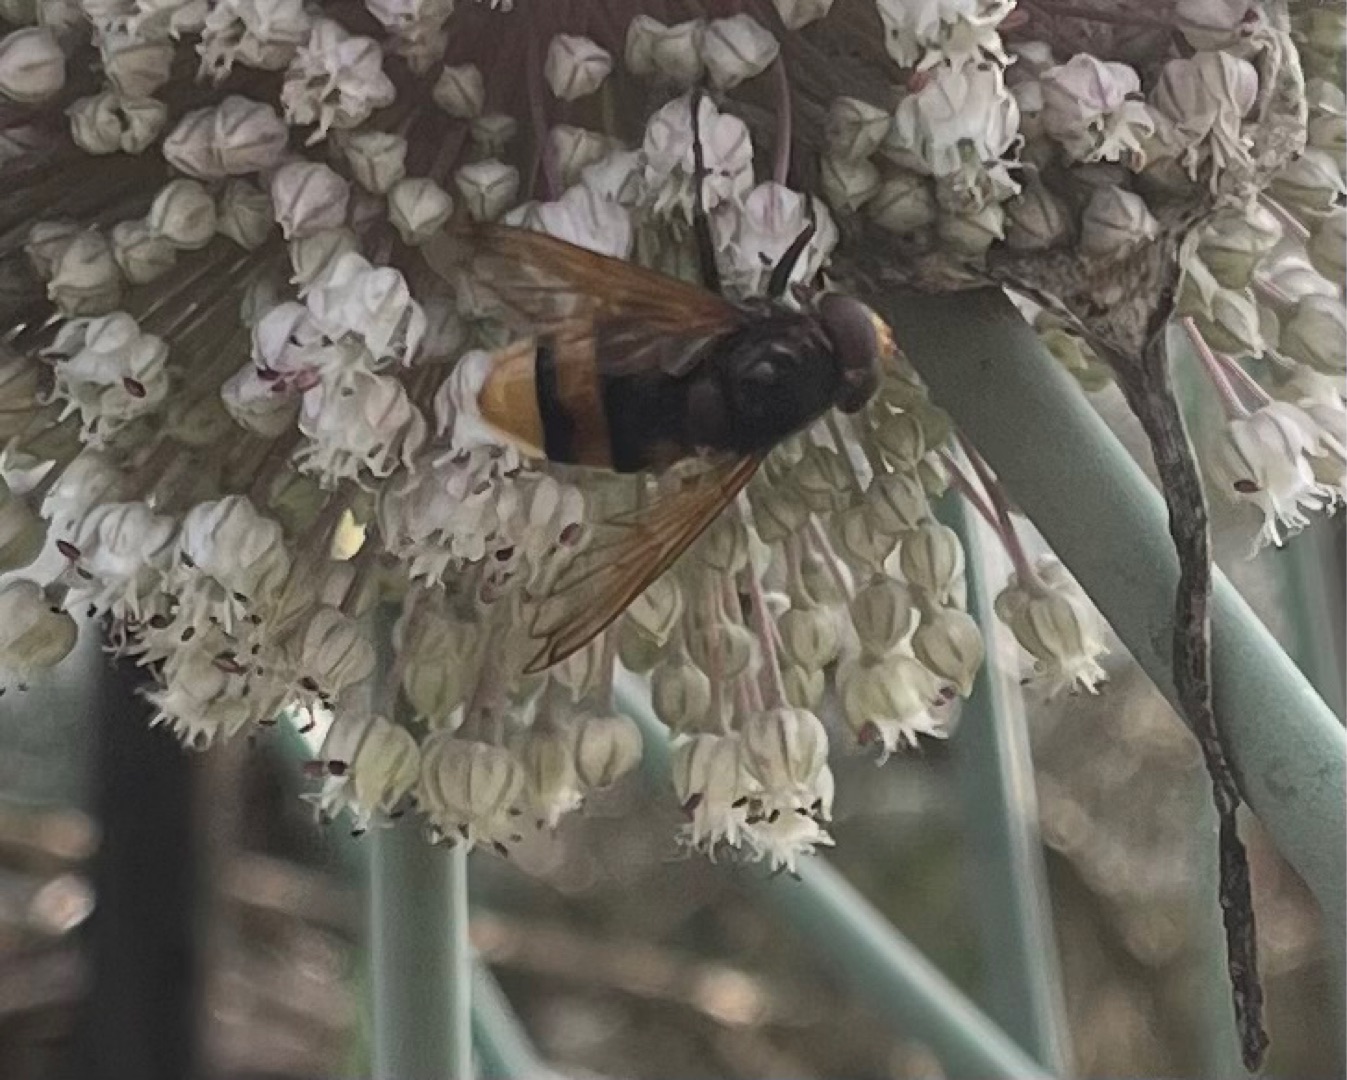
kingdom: Animalia
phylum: Arthropoda
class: Insecta
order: Diptera
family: Syrphidae
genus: Volucella
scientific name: Volucella zonaria
